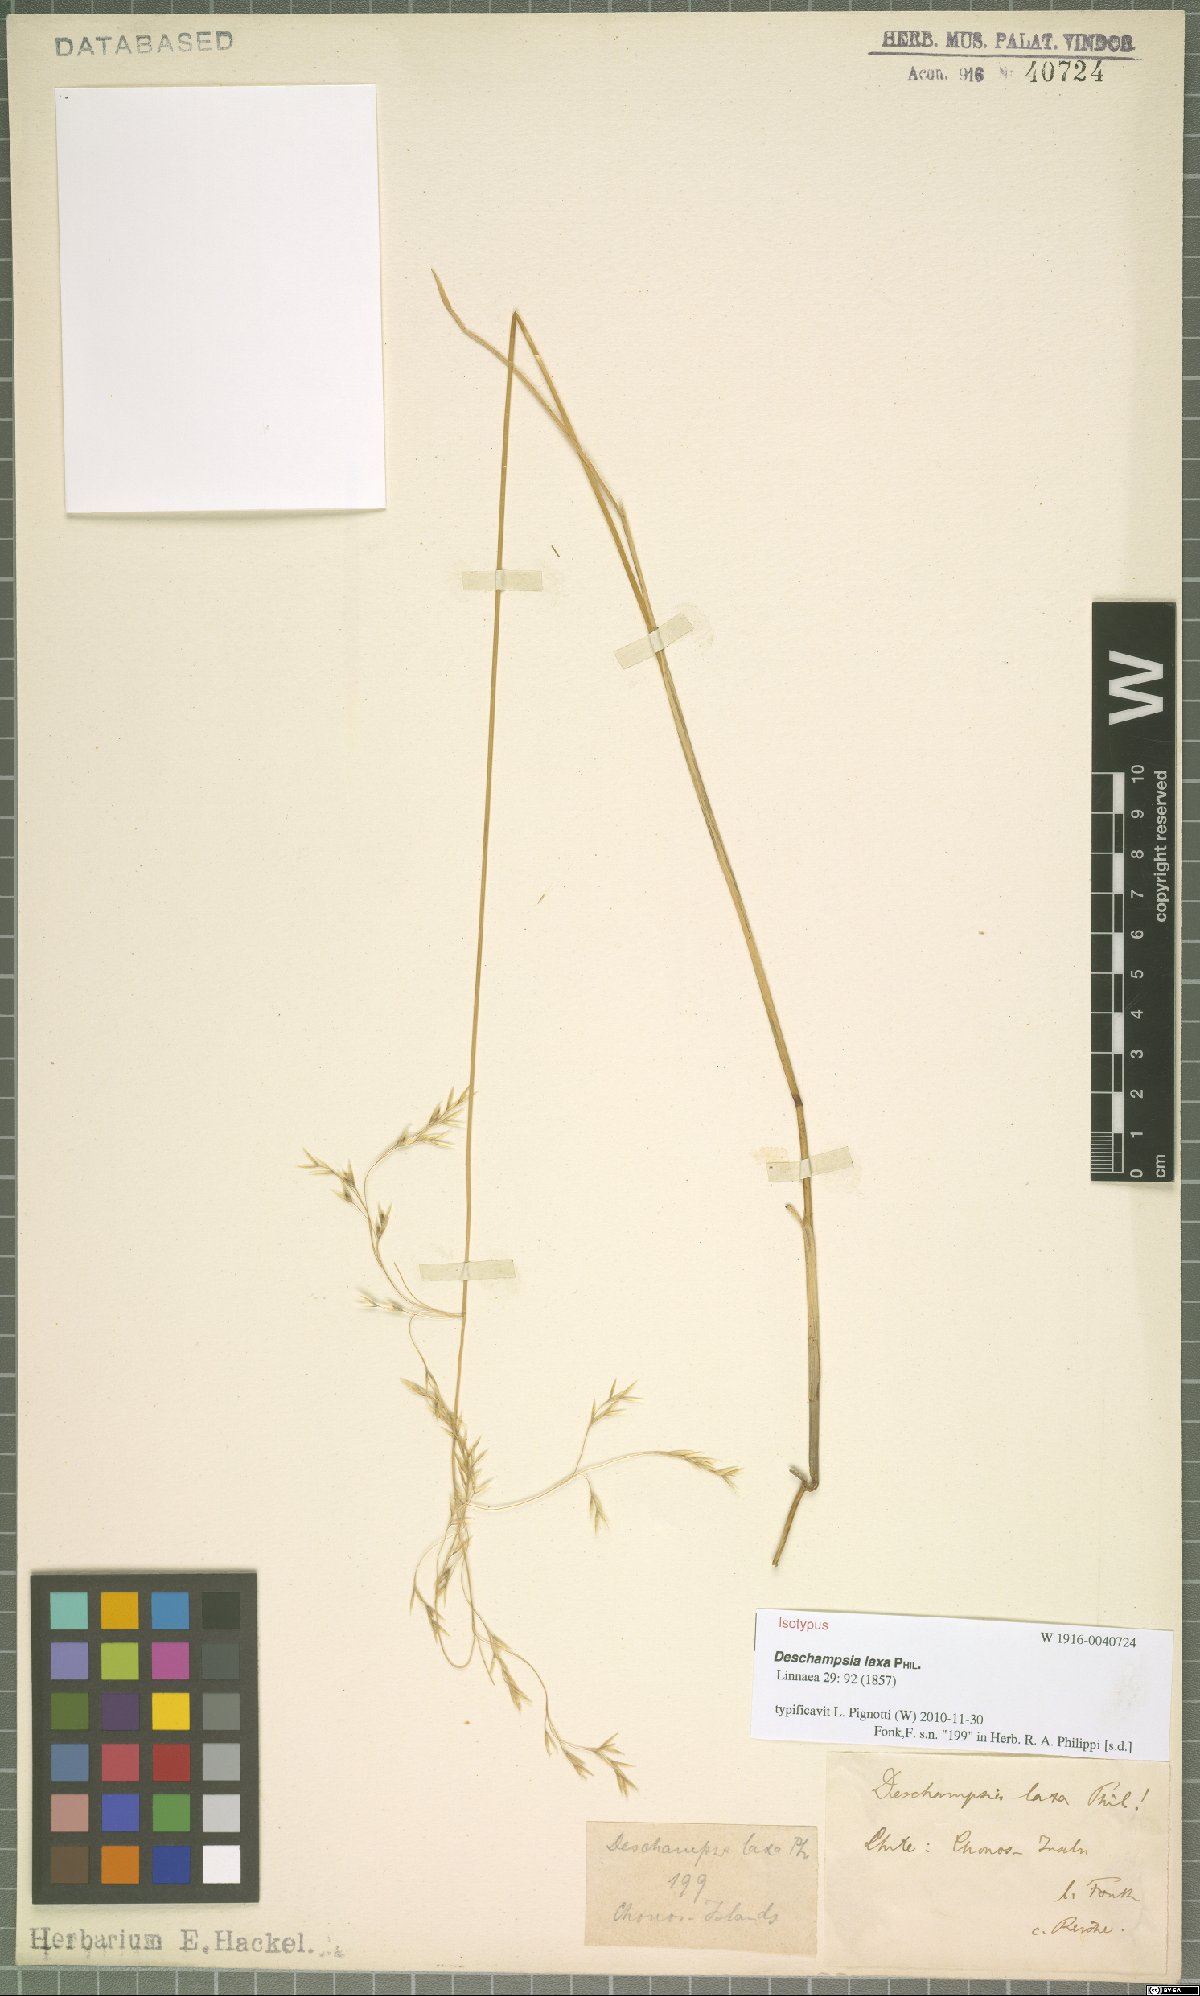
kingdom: Plantae
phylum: Tracheophyta
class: Liliopsida
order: Poales
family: Poaceae
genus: Deschampsia
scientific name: Deschampsia laxa
